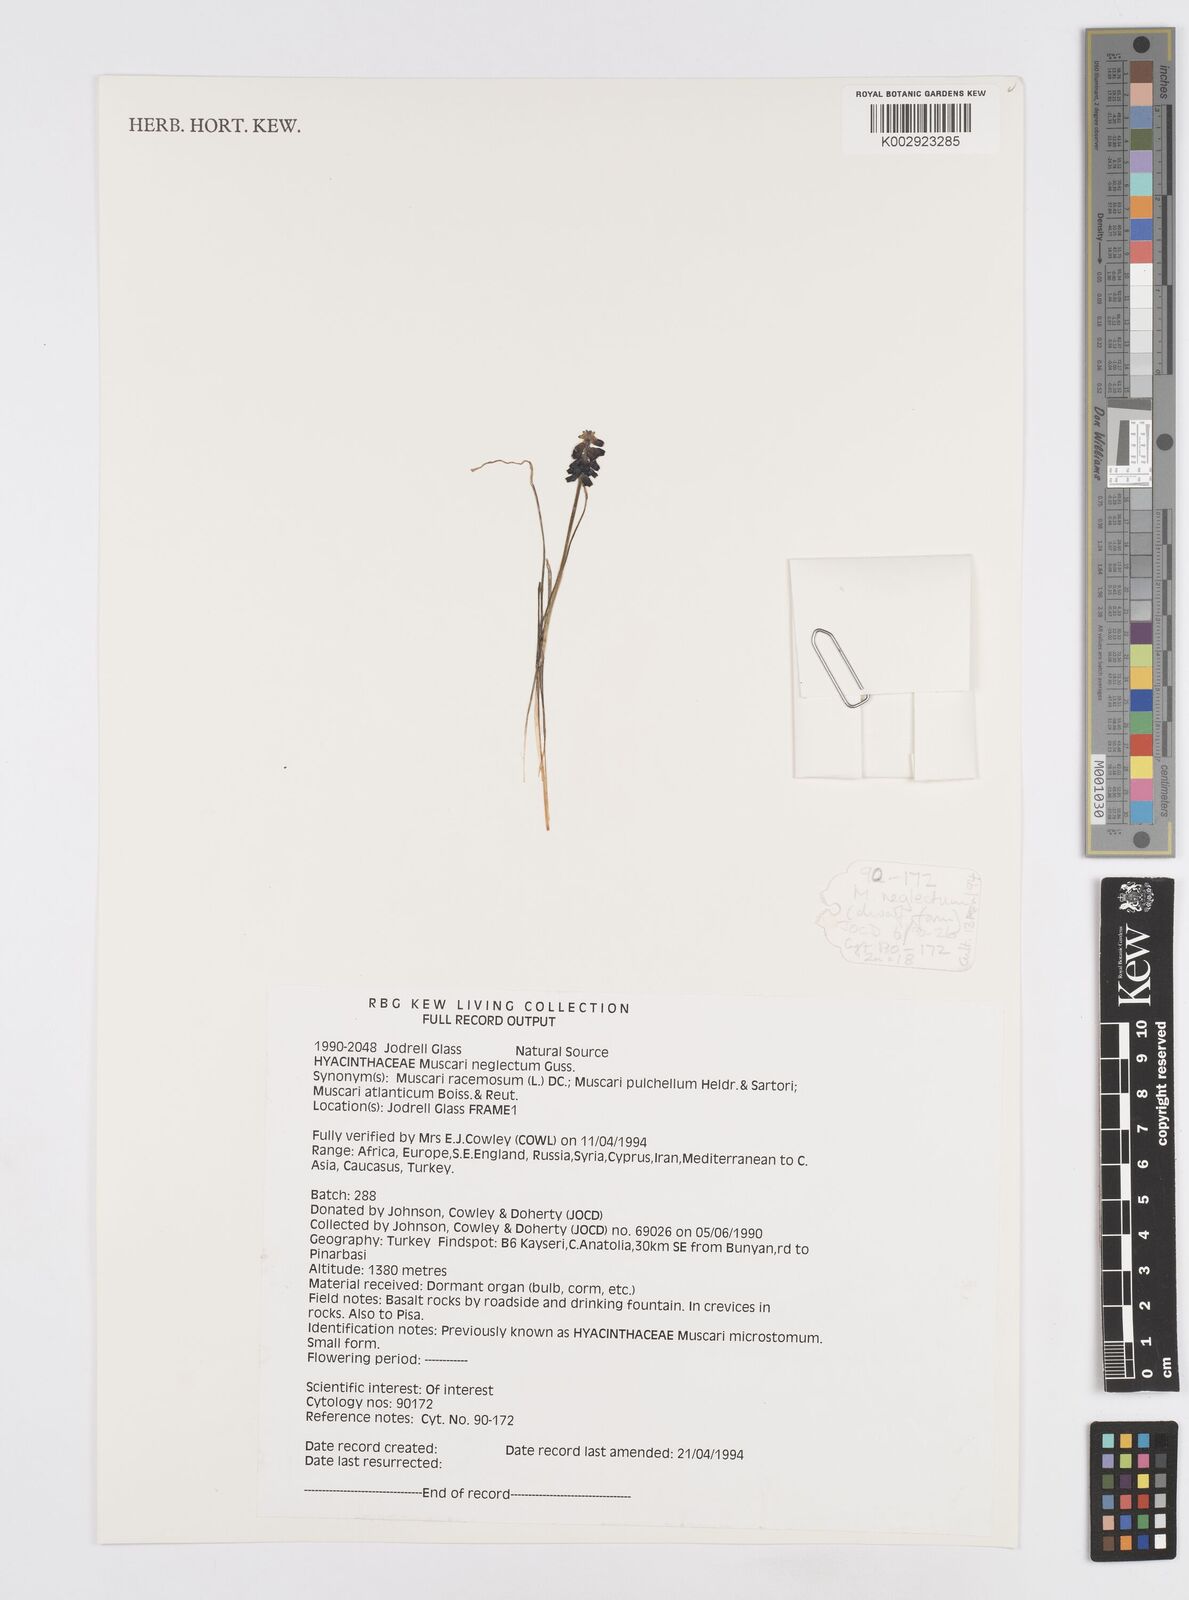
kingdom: Plantae
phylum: Tracheophyta
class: Liliopsida
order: Asparagales
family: Asparagaceae
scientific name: Asparagaceae
